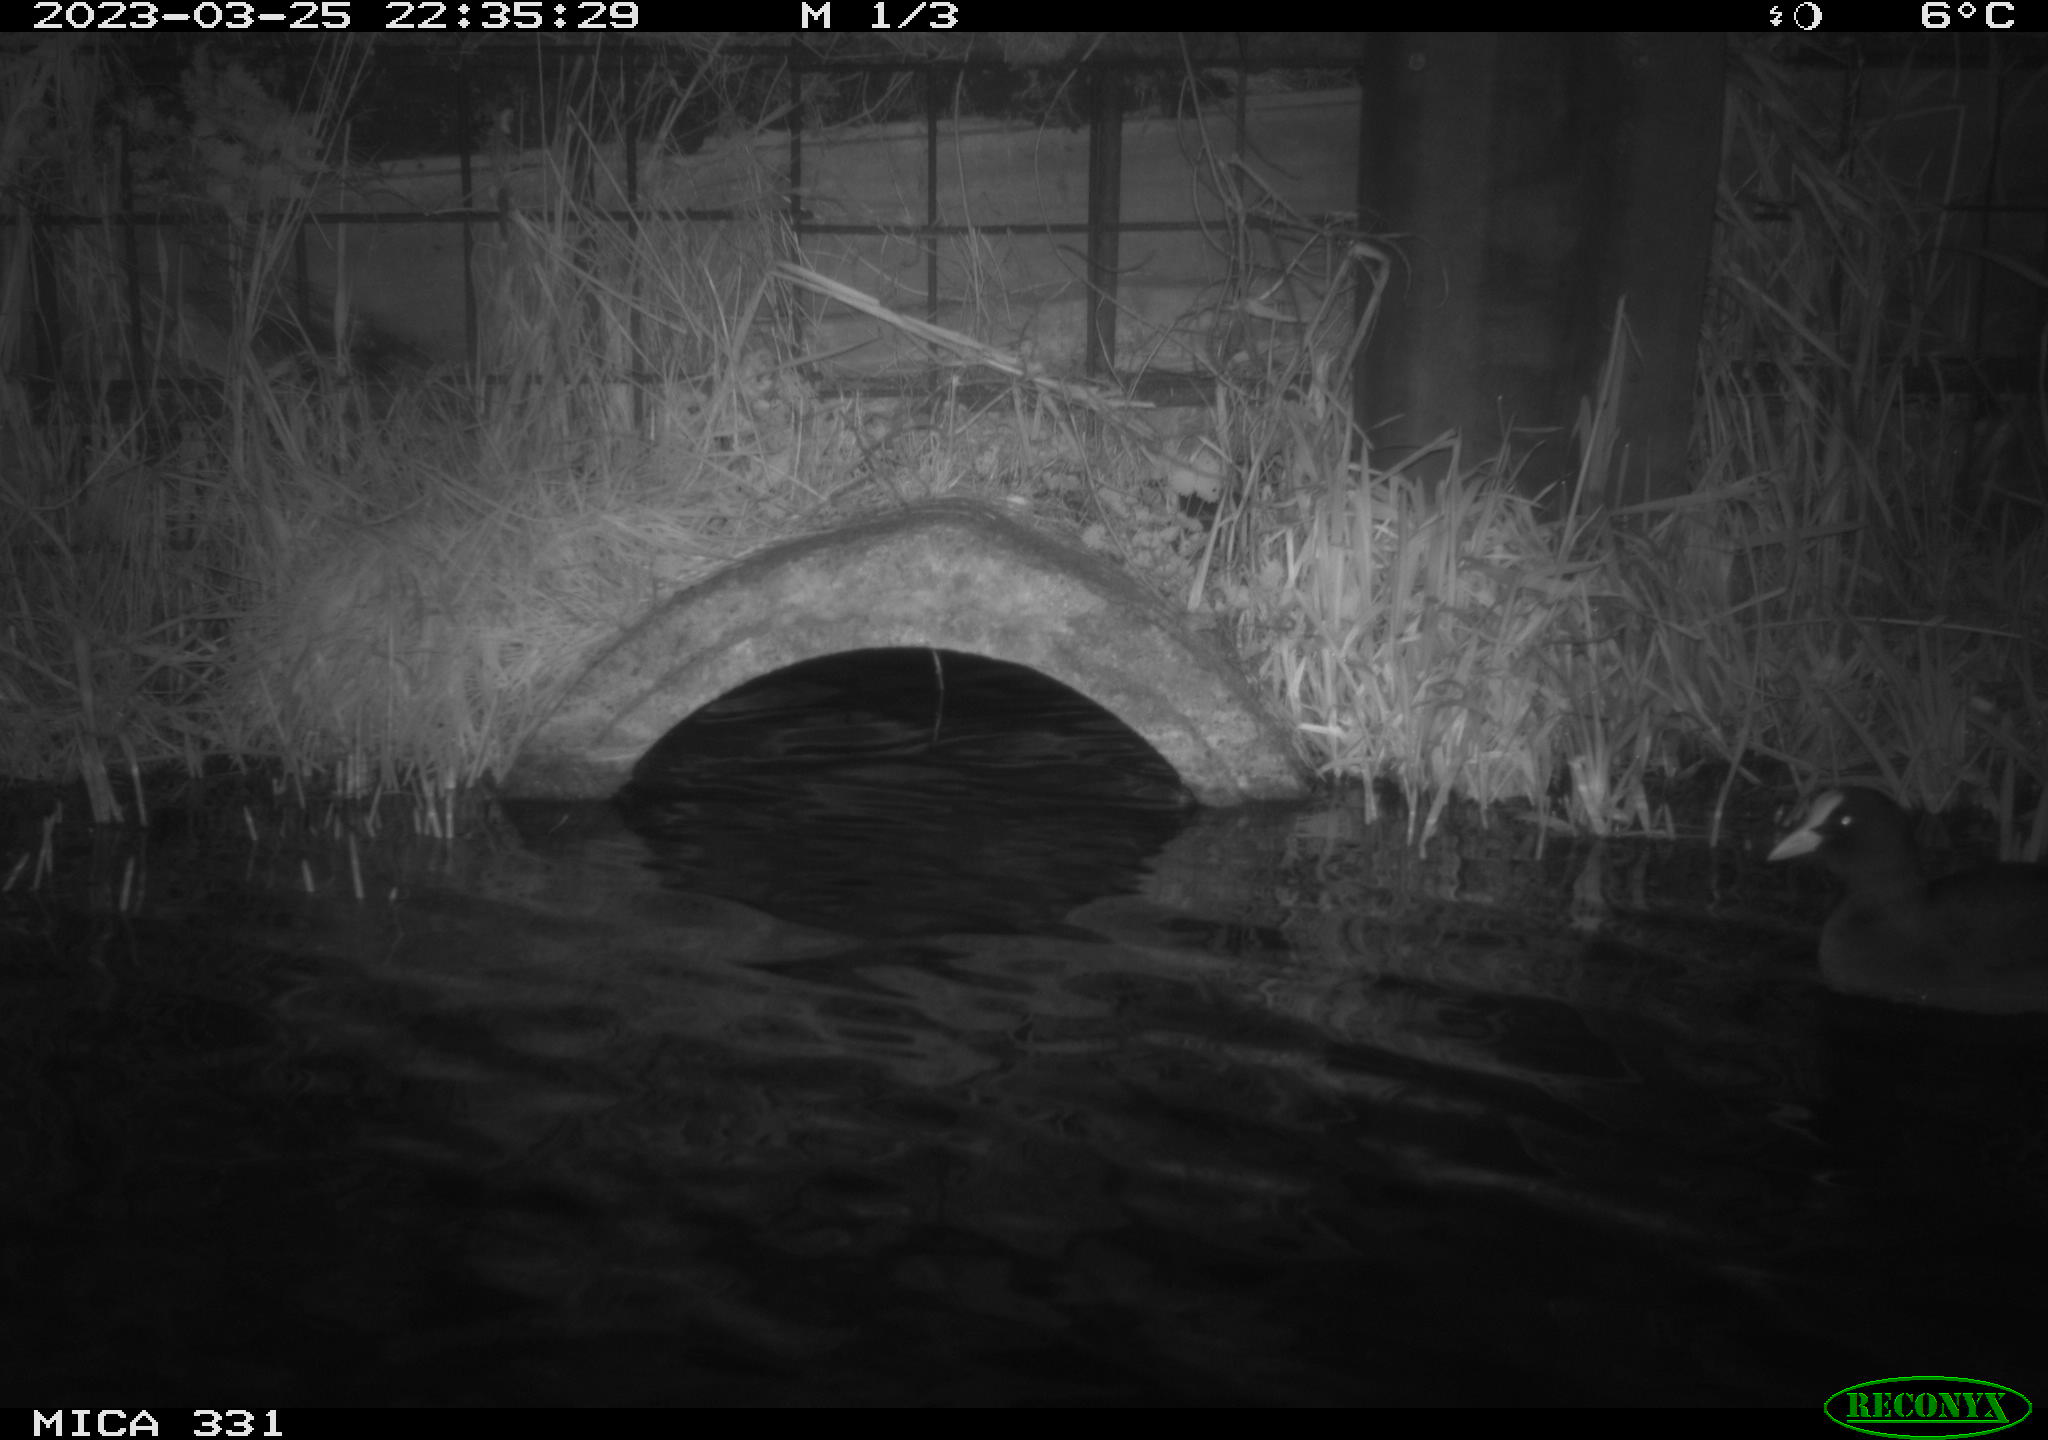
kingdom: Animalia
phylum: Chordata
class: Aves
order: Gruiformes
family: Rallidae
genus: Gallinula
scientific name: Gallinula chloropus
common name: Common moorhen
